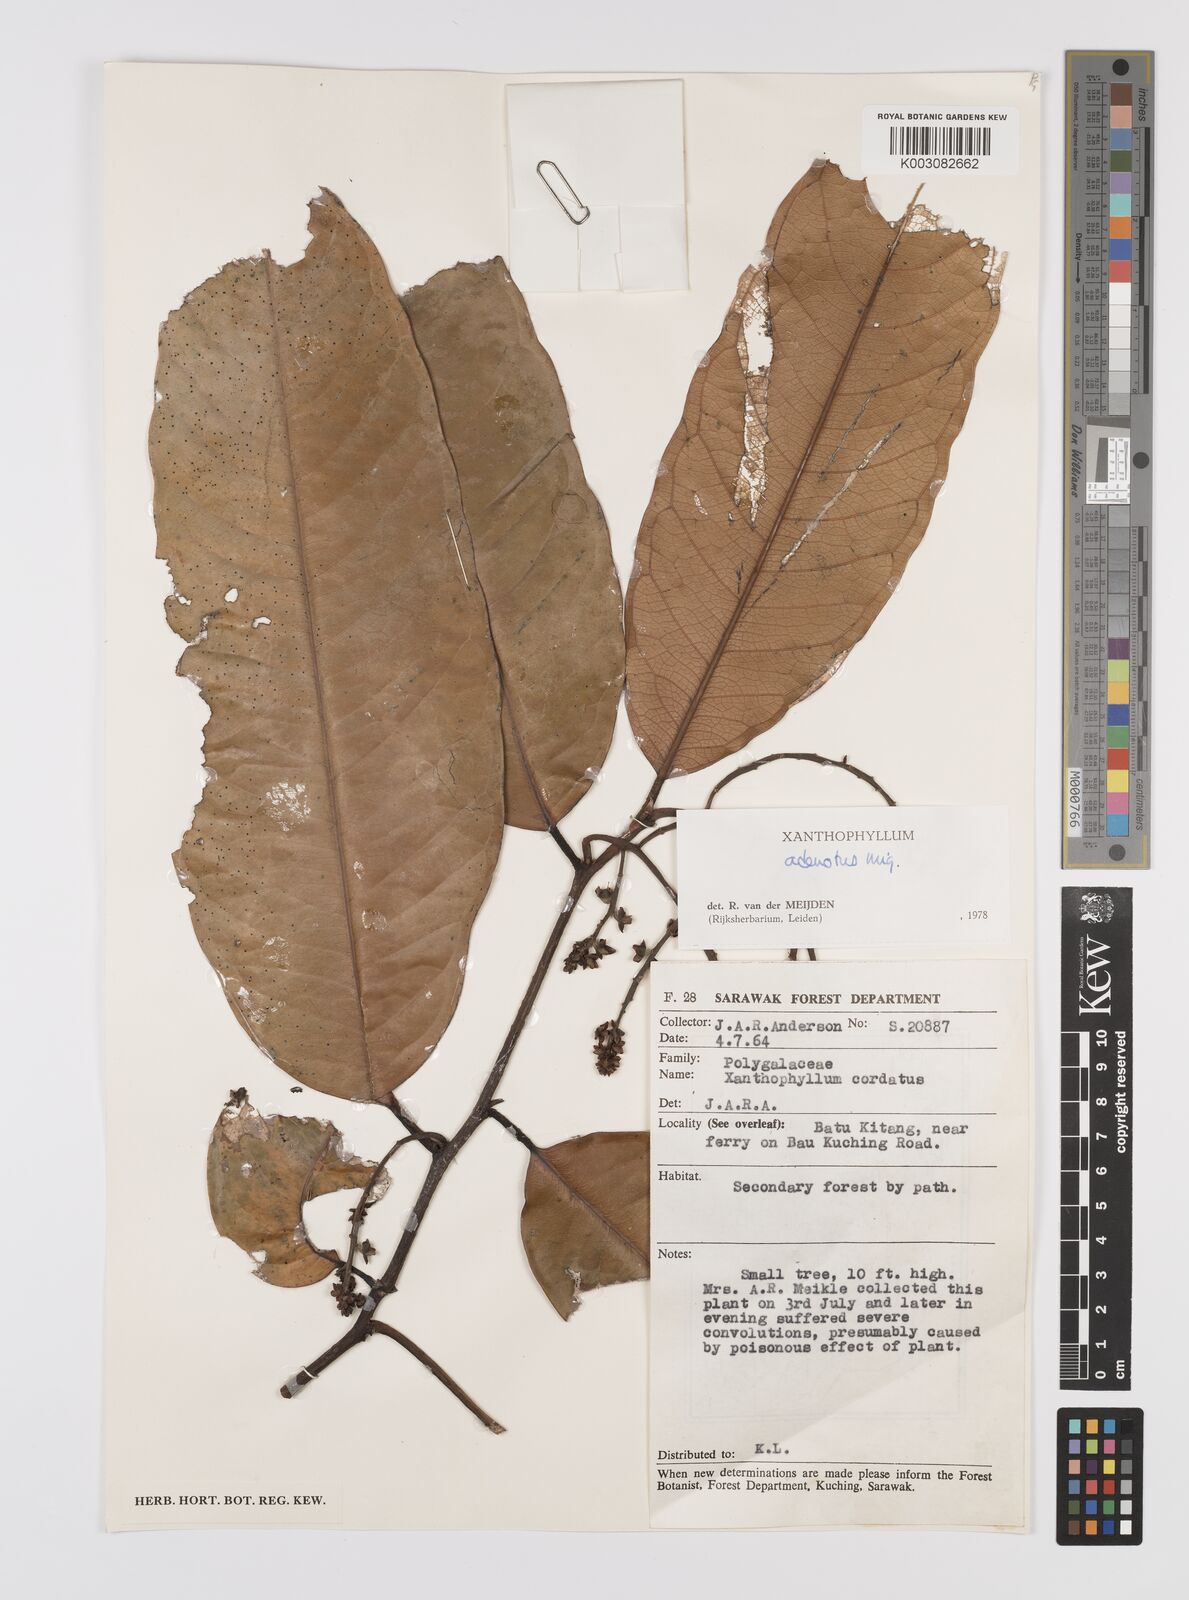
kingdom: Plantae
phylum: Tracheophyta
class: Magnoliopsida
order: Fabales
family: Polygalaceae
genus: Xanthophyllum
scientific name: Xanthophyllum adenotus
